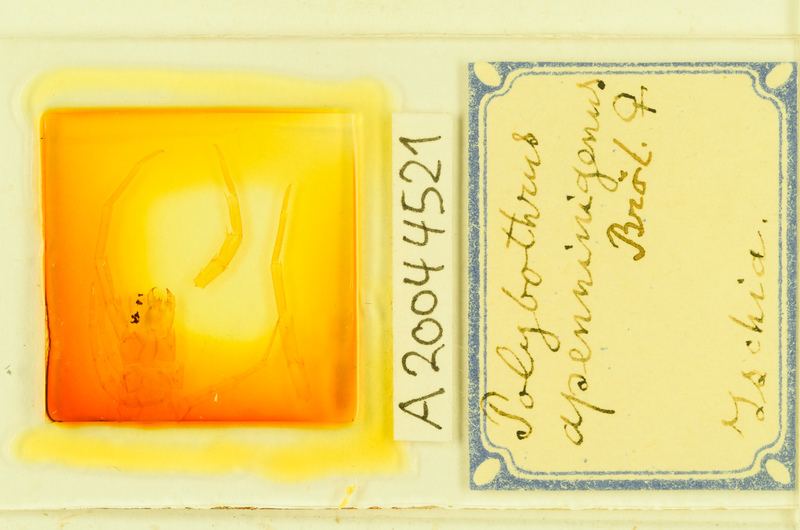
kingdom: Animalia
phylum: Arthropoda
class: Chilopoda
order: Lithobiomorpha
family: Lithobiidae
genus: Polybothrus
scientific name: Polybothrus
